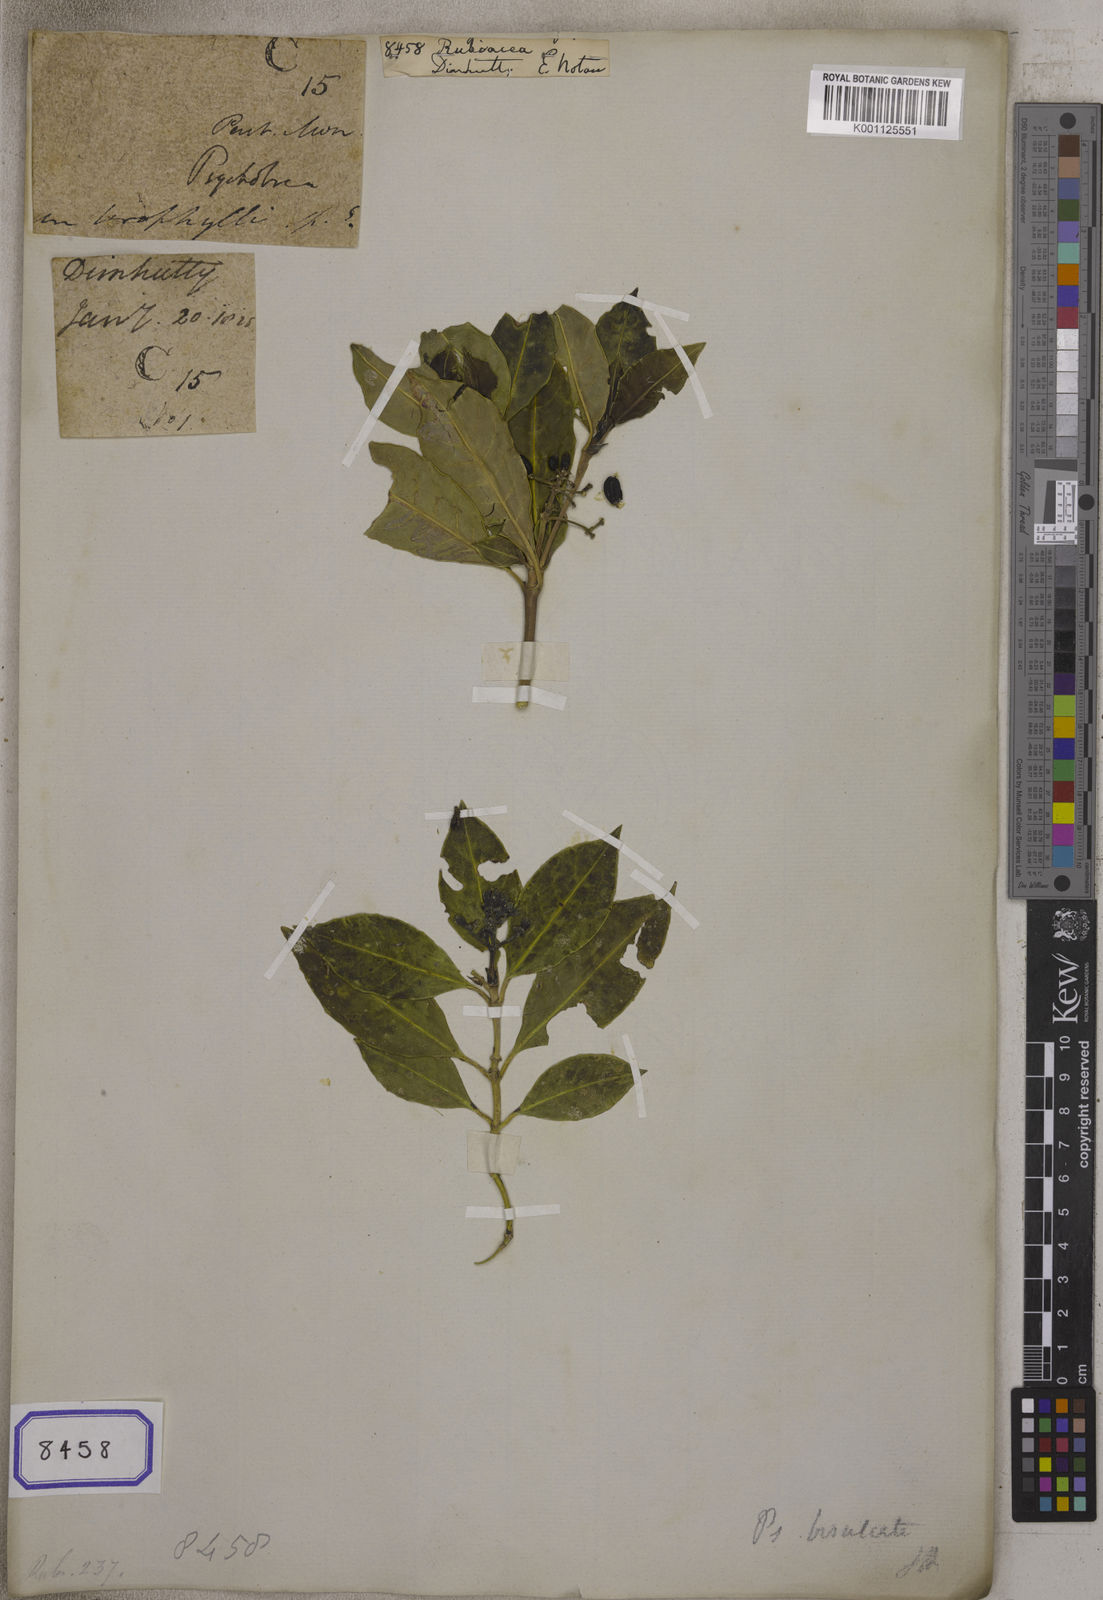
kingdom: Plantae
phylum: Tracheophyta
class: Magnoliopsida
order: Gentianales
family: Rubiaceae
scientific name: Rubiaceae
